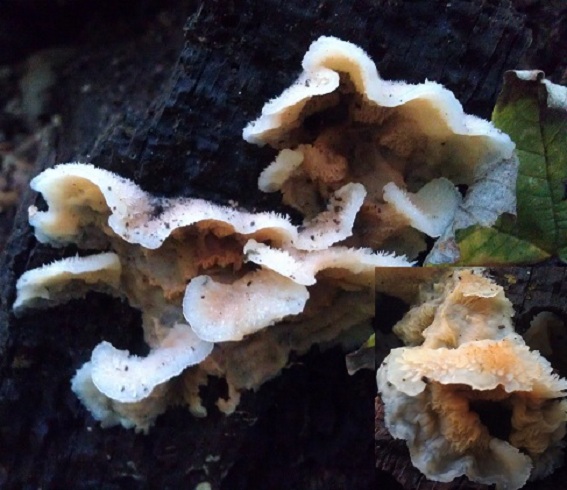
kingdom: Fungi
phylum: Basidiomycota
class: Agaricomycetes
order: Polyporales
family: Meruliaceae
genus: Phlebia
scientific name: Phlebia tremellosa
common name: bævrende åresvamp
